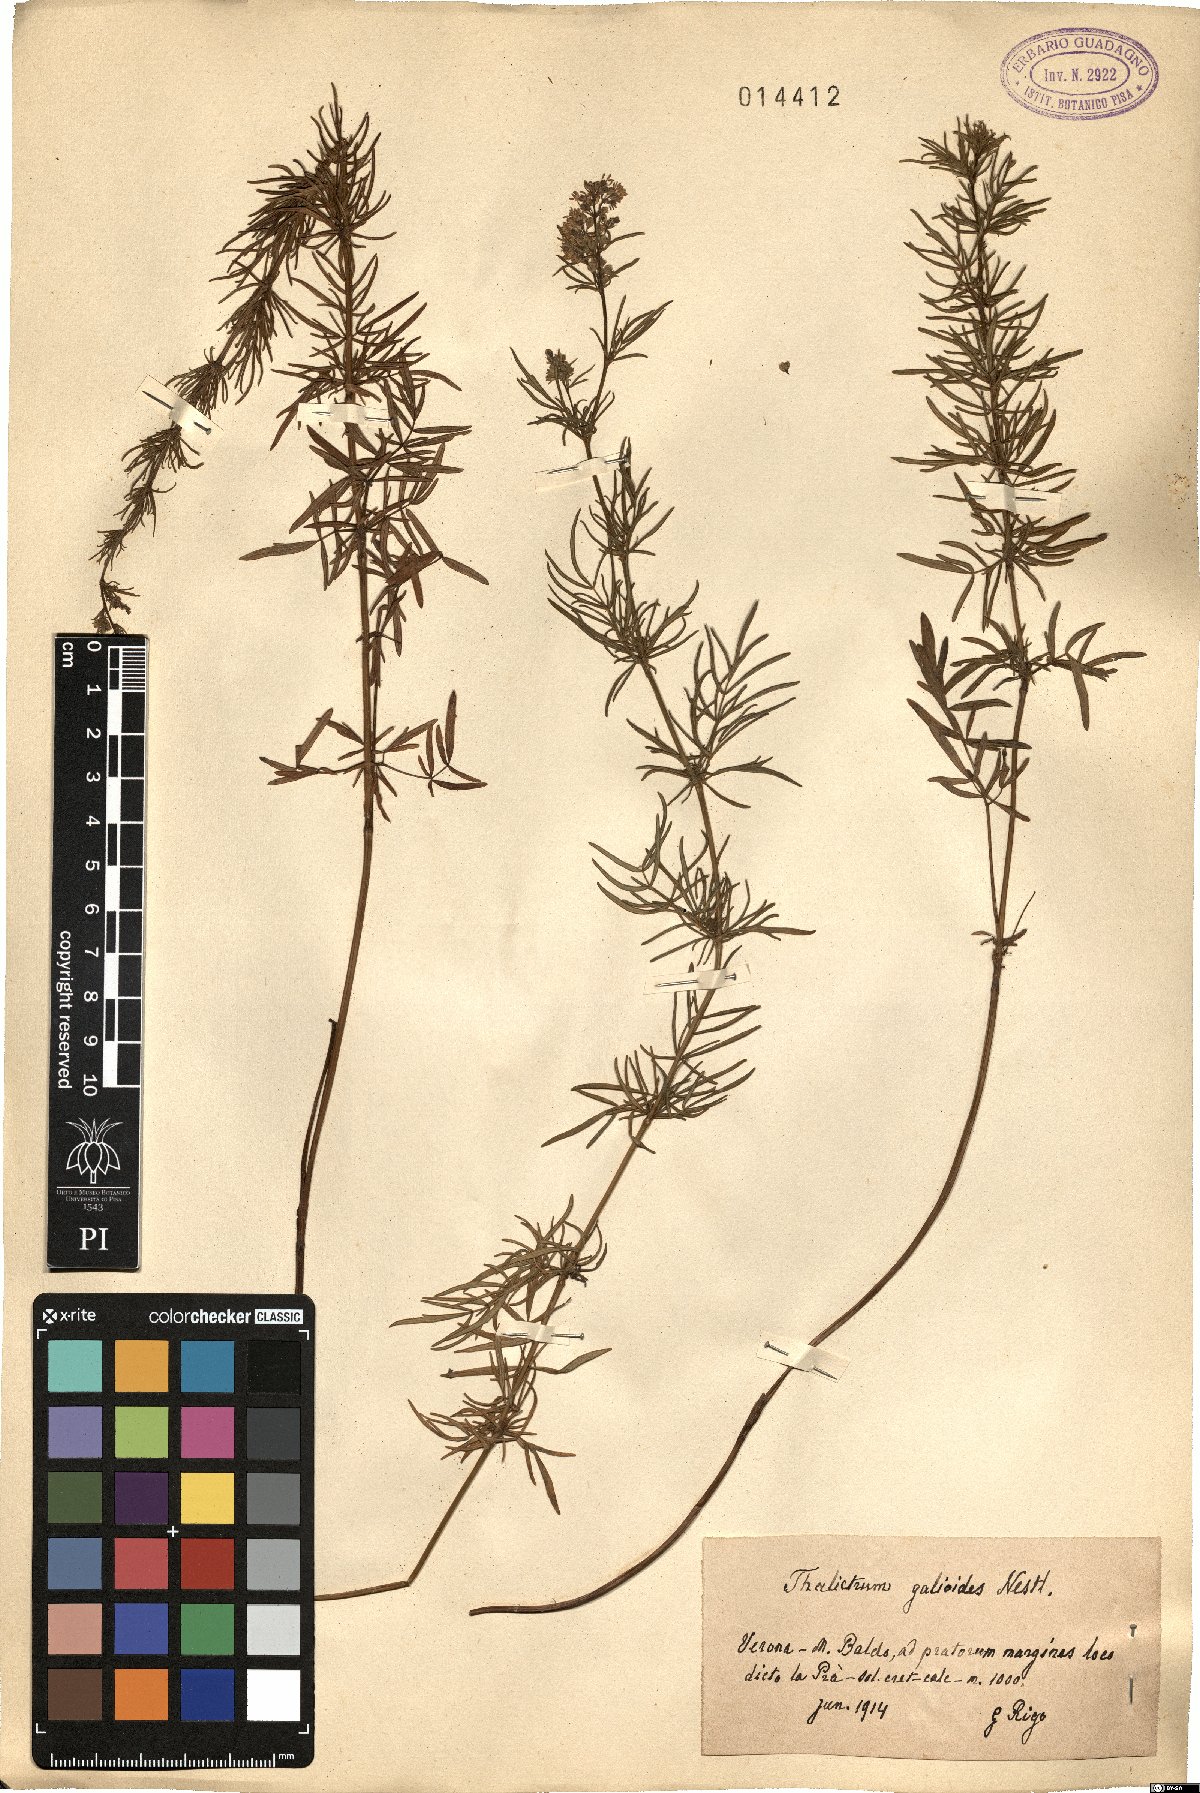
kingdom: Plantae
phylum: Tracheophyta
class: Magnoliopsida
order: Ranunculales
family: Ranunculaceae
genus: Thalictrum
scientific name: Thalictrum simplex
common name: Small meadow-rue
